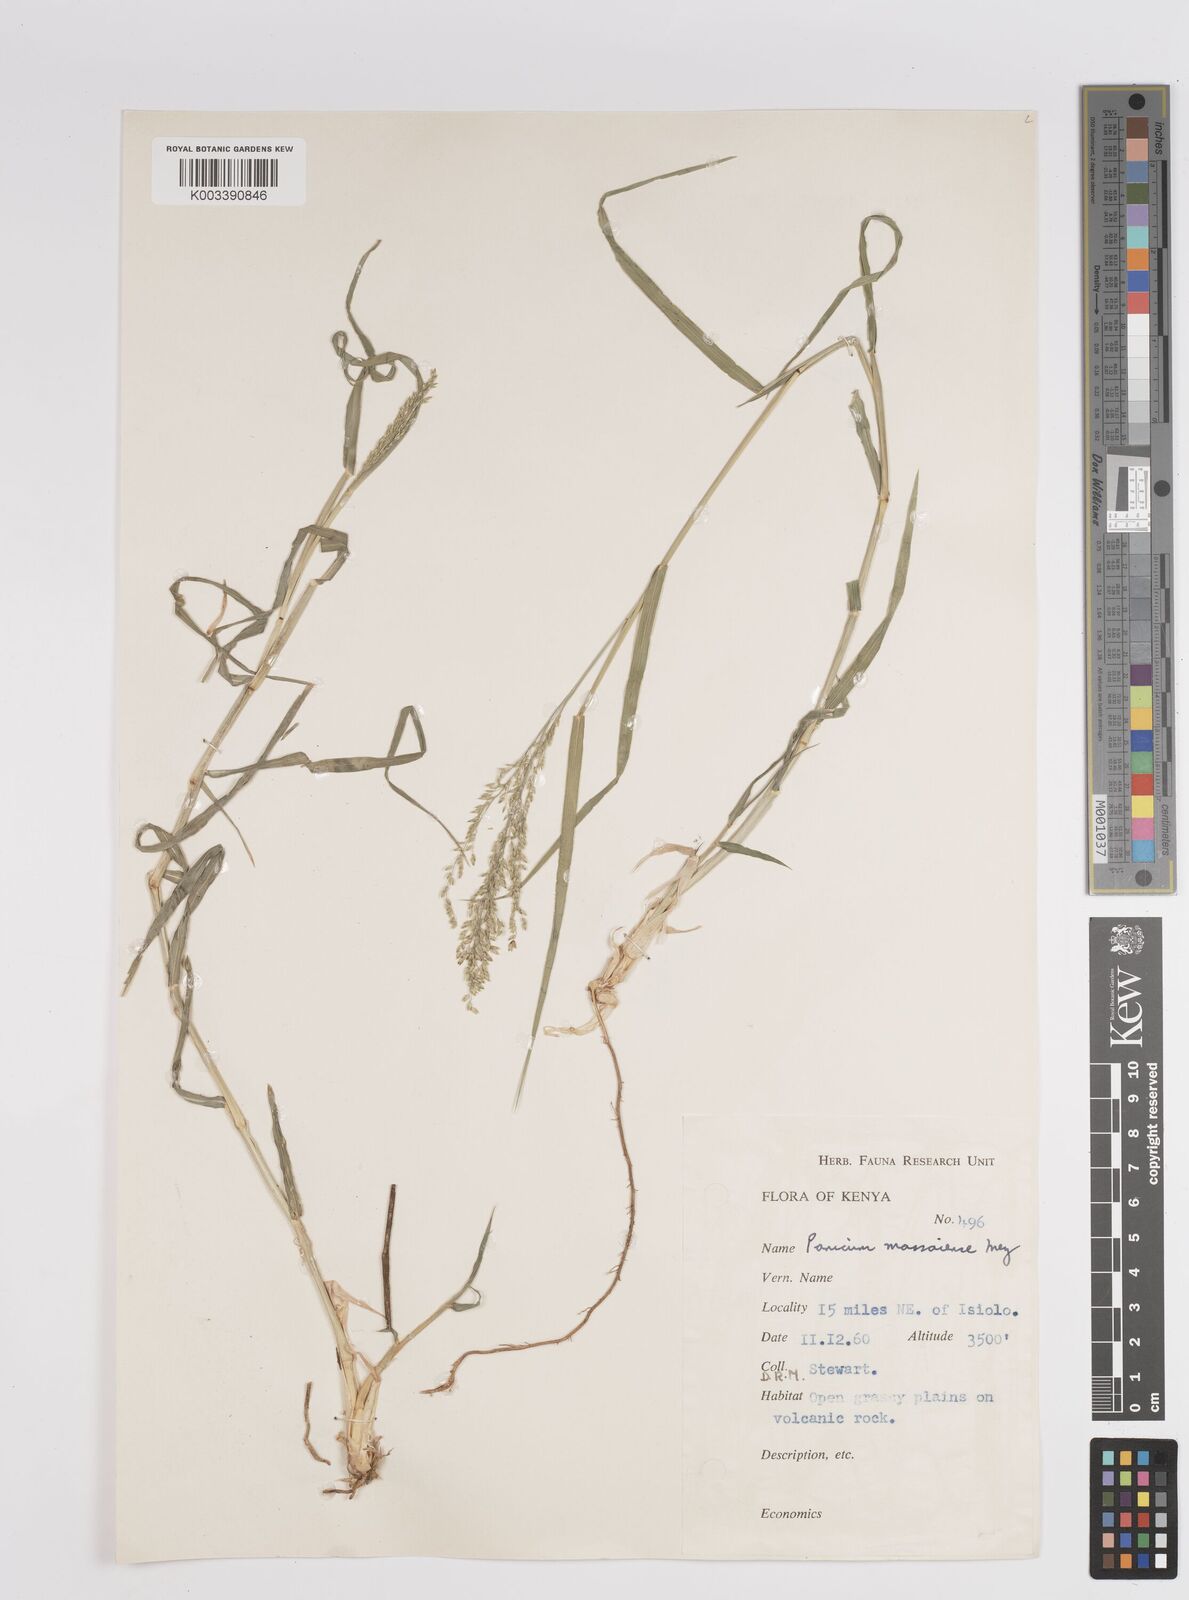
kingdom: Plantae
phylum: Tracheophyta
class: Liliopsida
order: Poales
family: Poaceae
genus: Panicum
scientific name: Panicum coloratum
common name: Kleingrass
